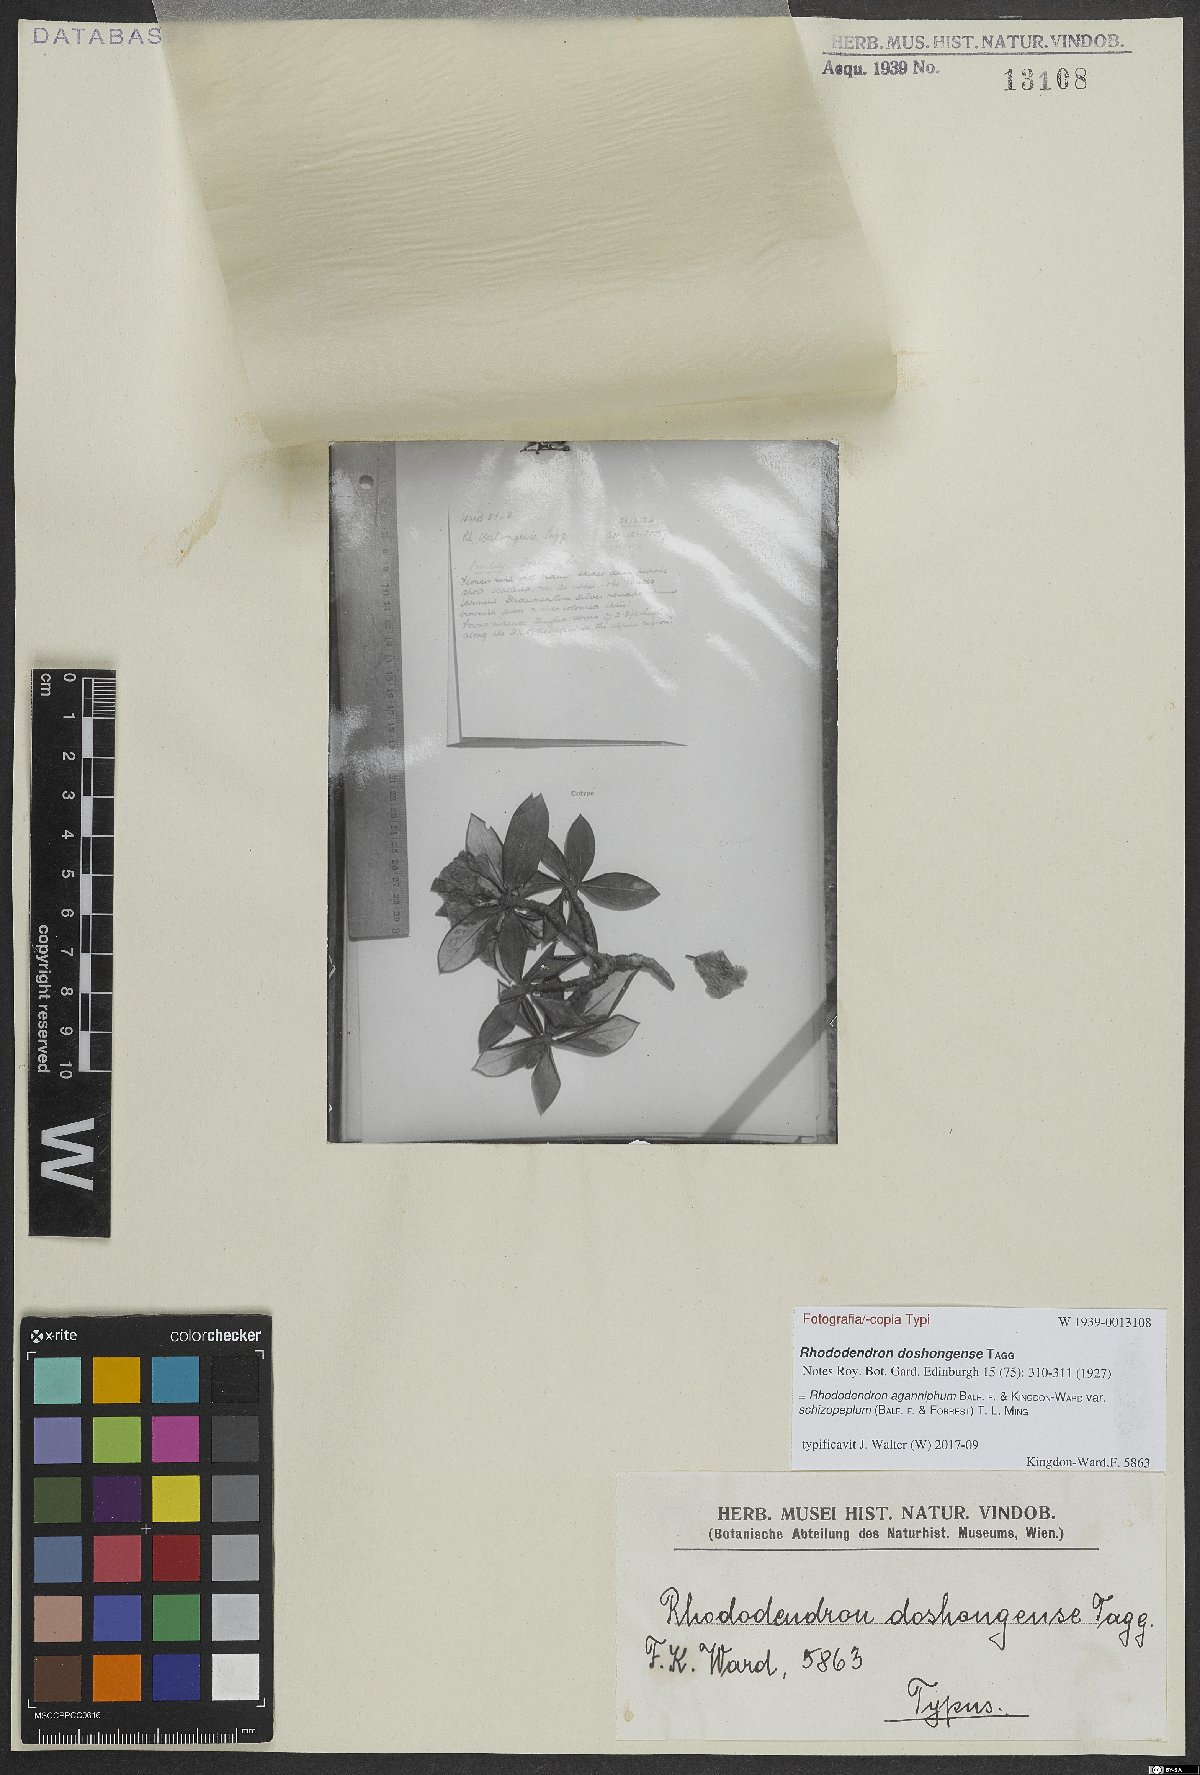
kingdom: Plantae
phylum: Tracheophyta
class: Magnoliopsida
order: Ericales
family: Ericaceae
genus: Rhododendron
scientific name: Rhododendron aganniphum
